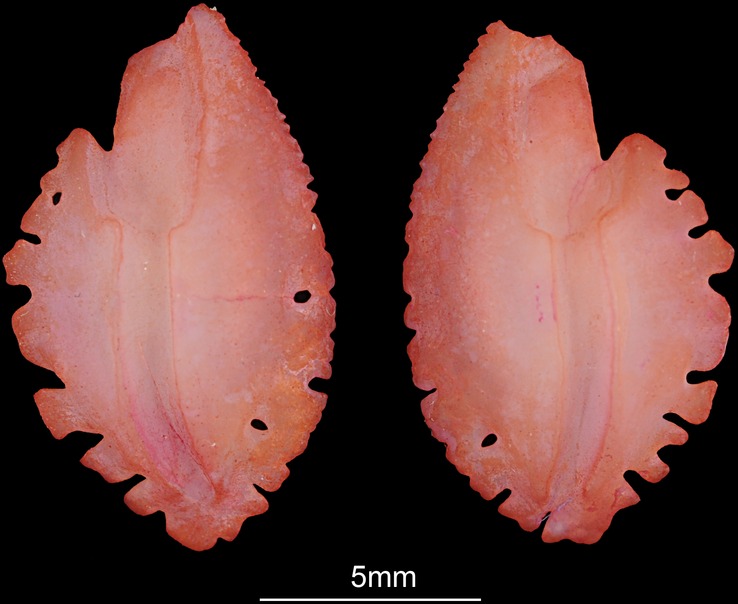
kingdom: Animalia
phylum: Chordata
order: Perciformes
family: Lutjanidae
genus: Pristipomoides
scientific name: Pristipomoides filamentosus
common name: Bluespot jobfish
